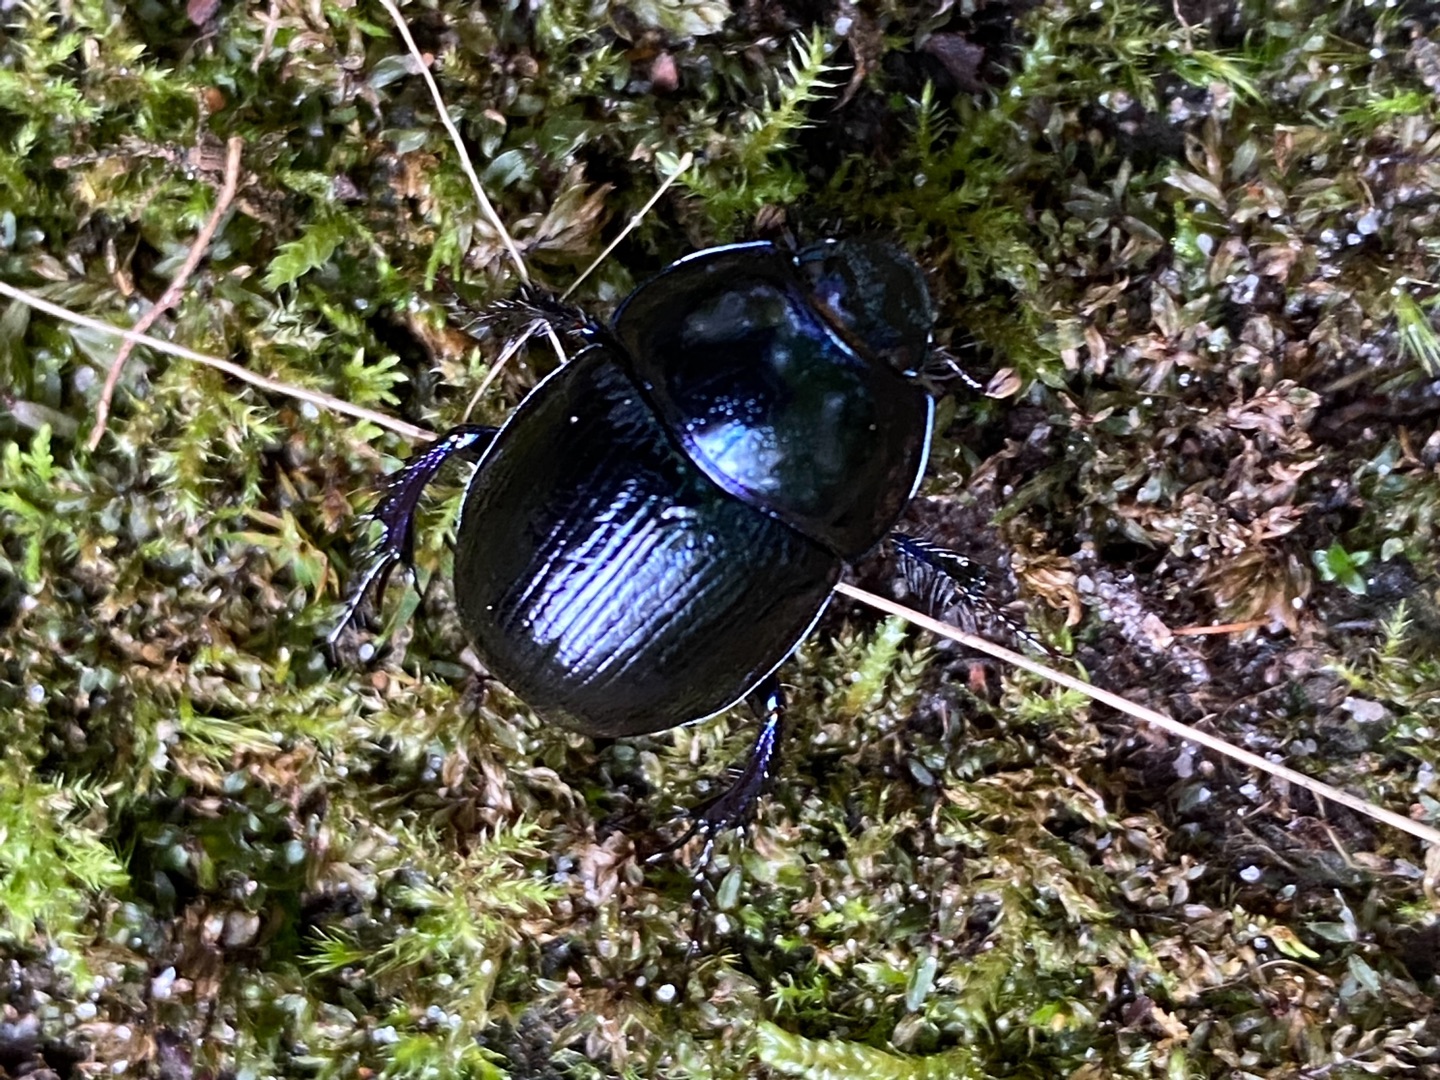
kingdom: Animalia
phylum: Arthropoda
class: Insecta
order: Coleoptera
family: Geotrupidae
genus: Anoplotrupes
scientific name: Anoplotrupes stercorosus
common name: Skovskarnbasse
